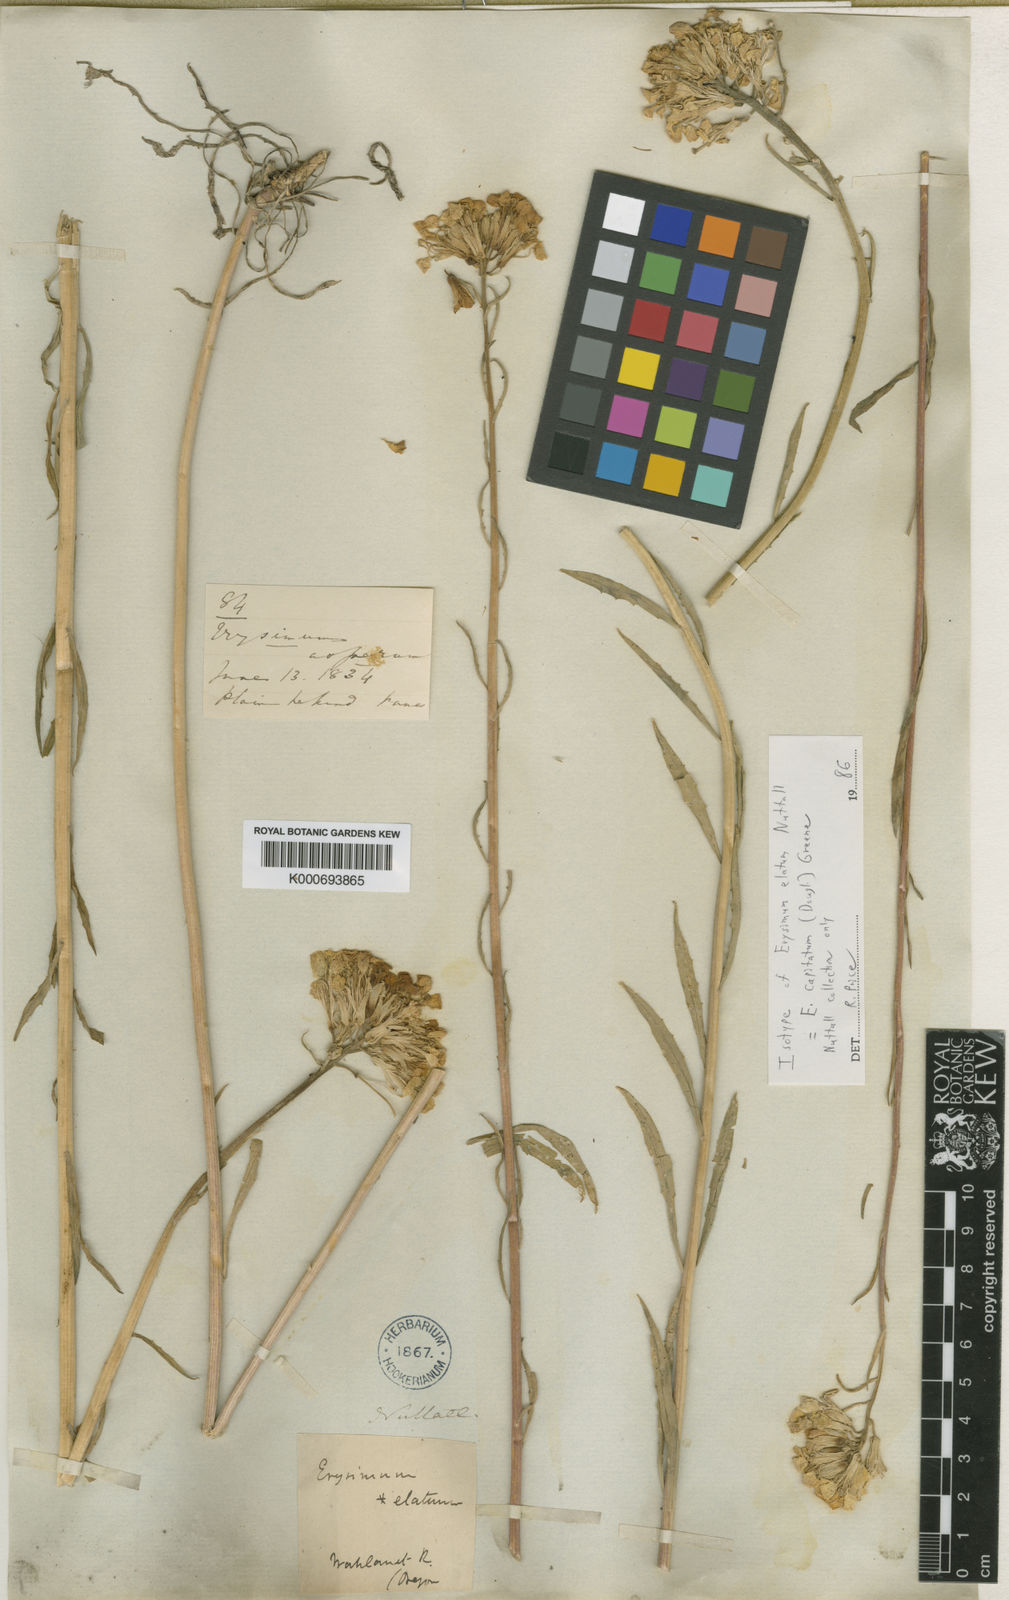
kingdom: Plantae
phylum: Tracheophyta
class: Magnoliopsida
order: Brassicales
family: Brassicaceae
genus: Erysimum
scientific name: Erysimum capitatum
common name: Western wallflower
